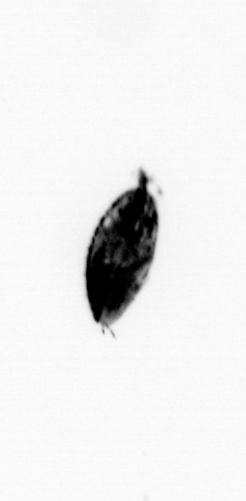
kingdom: Animalia
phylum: Arthropoda
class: Maxillopoda
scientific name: Maxillopoda
